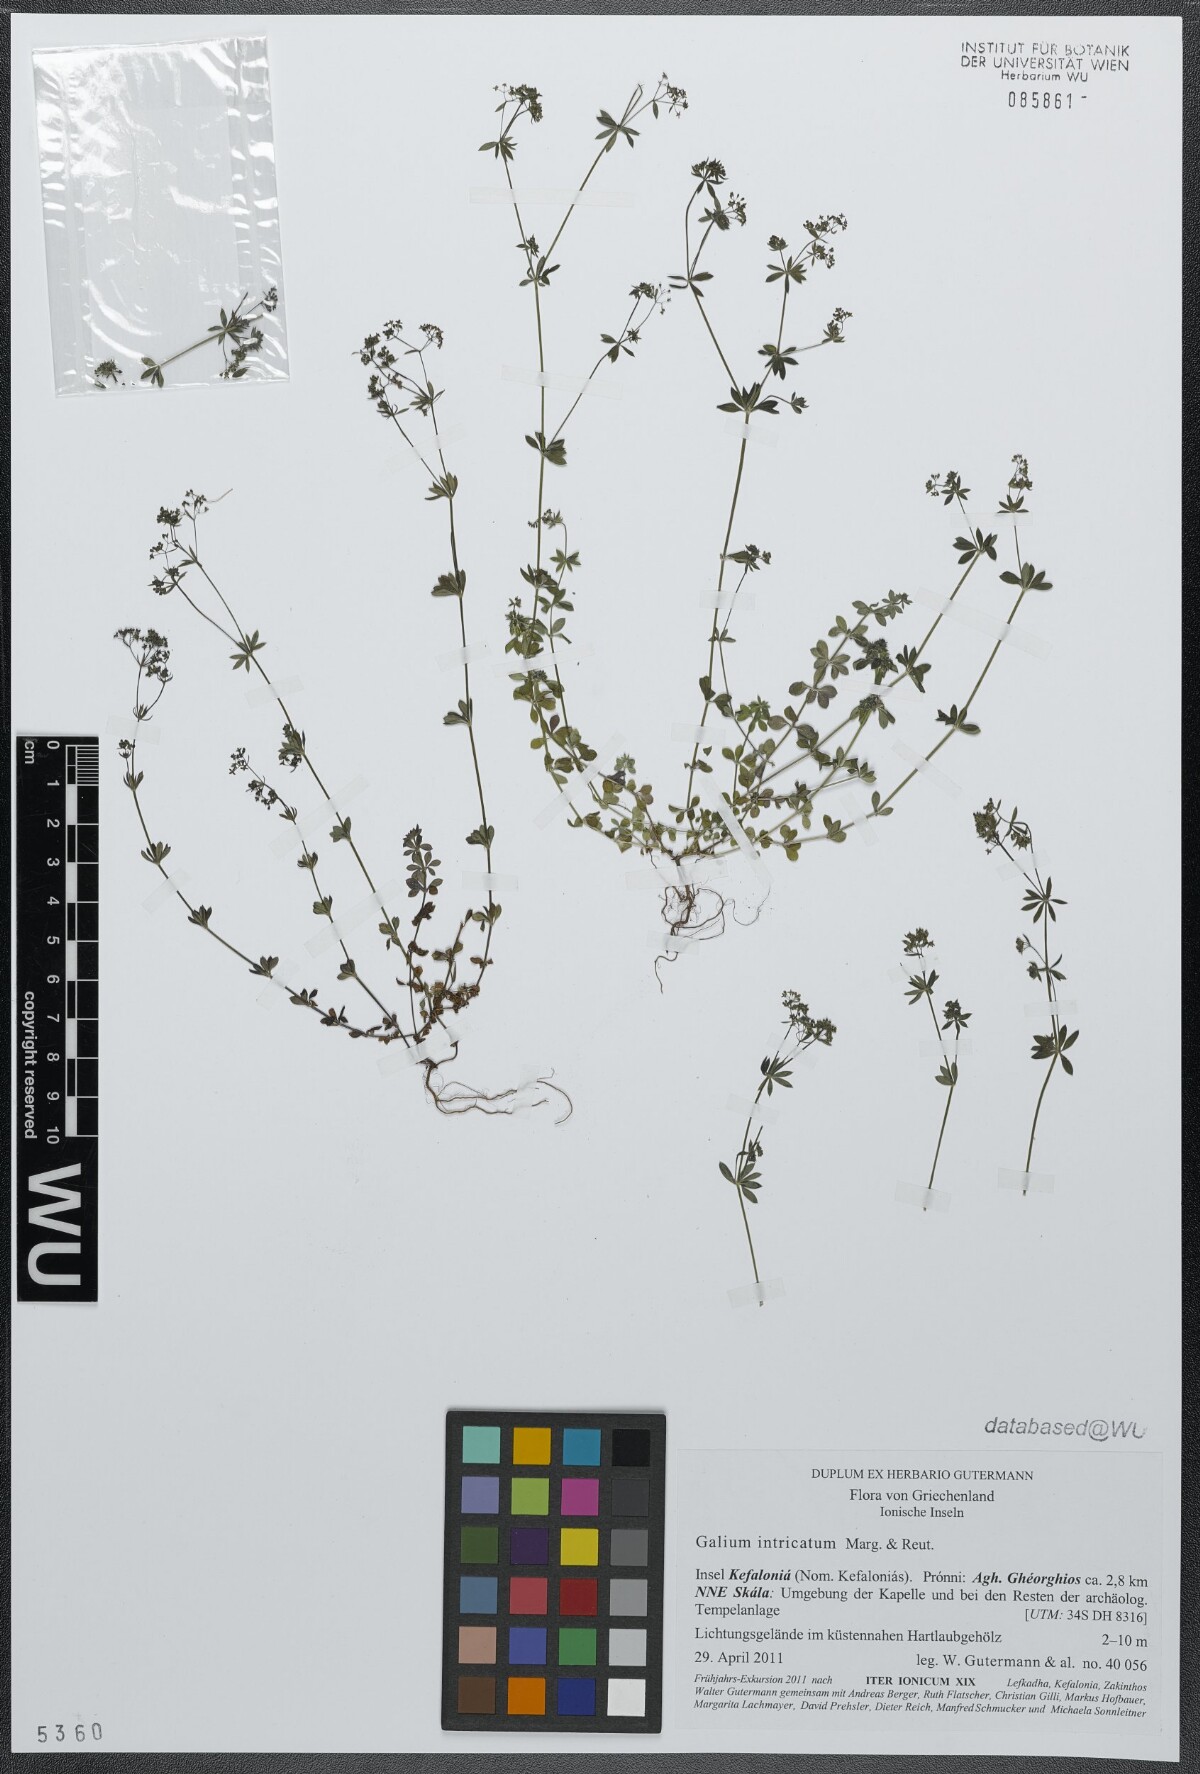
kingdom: Plantae
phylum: Tracheophyta
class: Magnoliopsida
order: Gentianales
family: Rubiaceae
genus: Galium
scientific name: Galium intricatum
